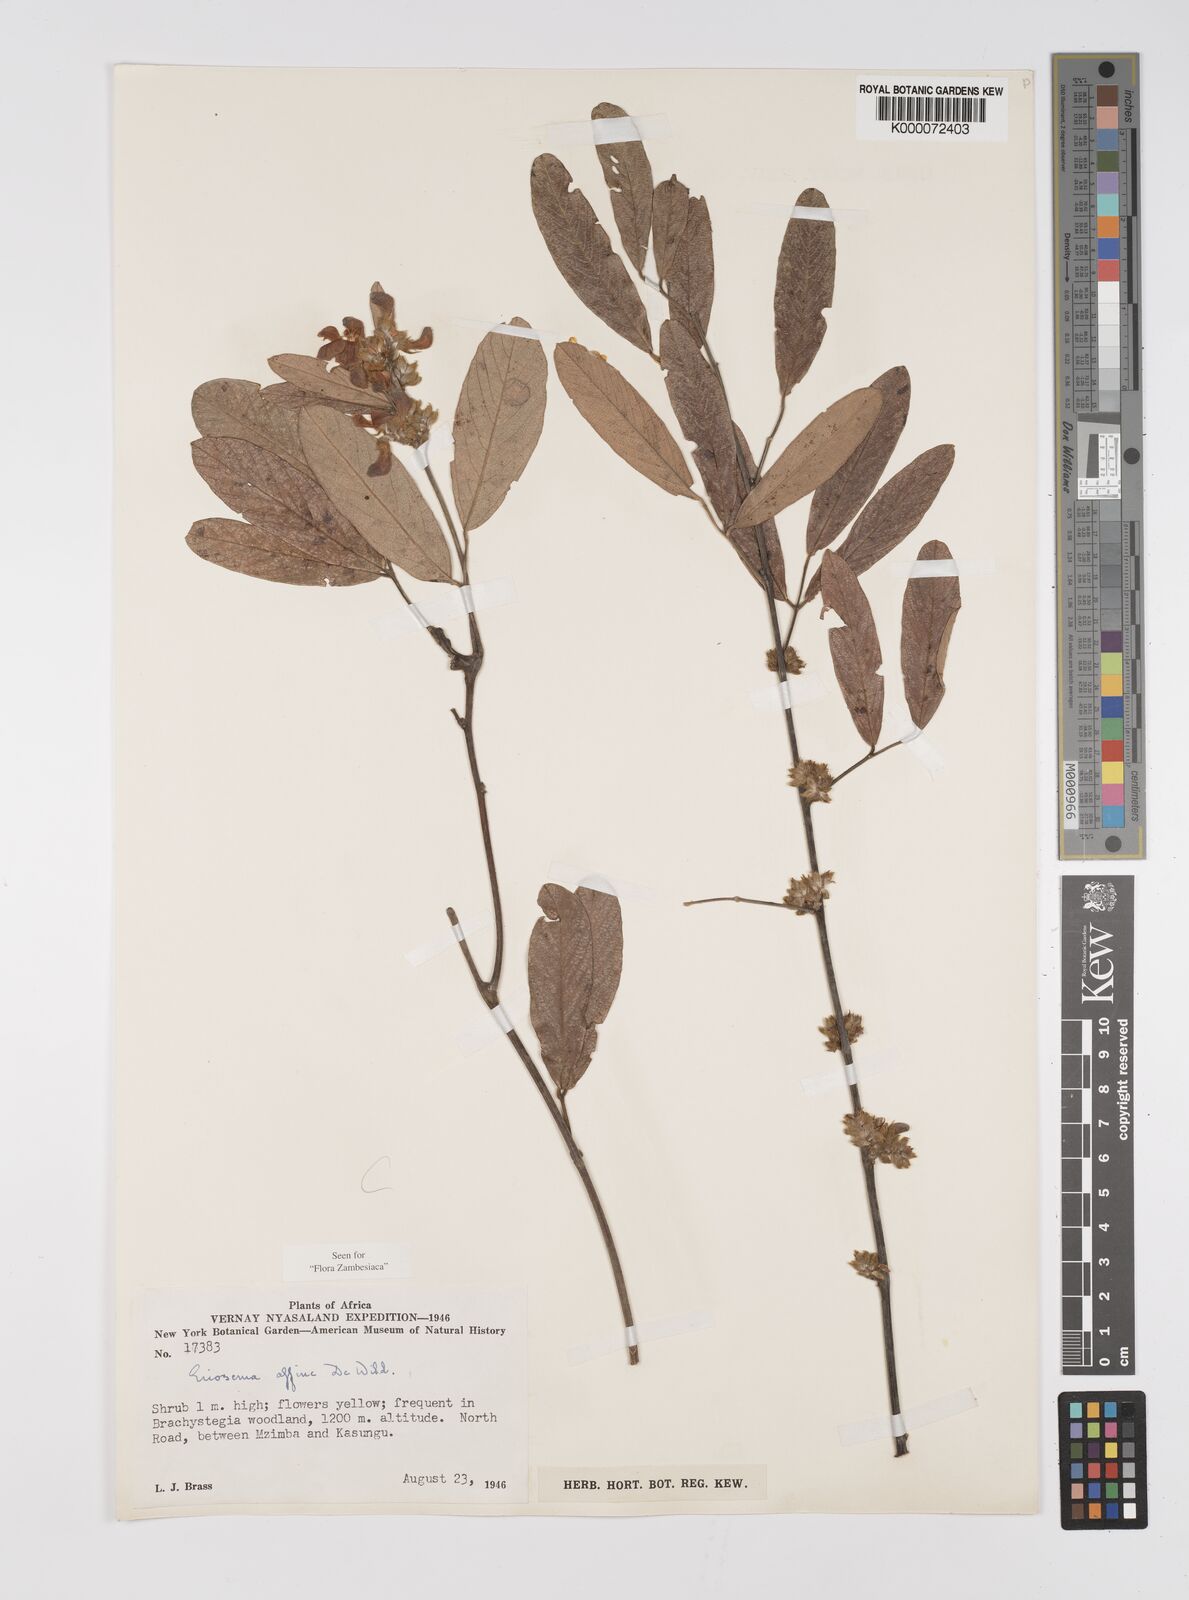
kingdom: Plantae
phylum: Tracheophyta
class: Magnoliopsida
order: Fabales
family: Fabaceae
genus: Eriosema
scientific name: Eriosema affine
